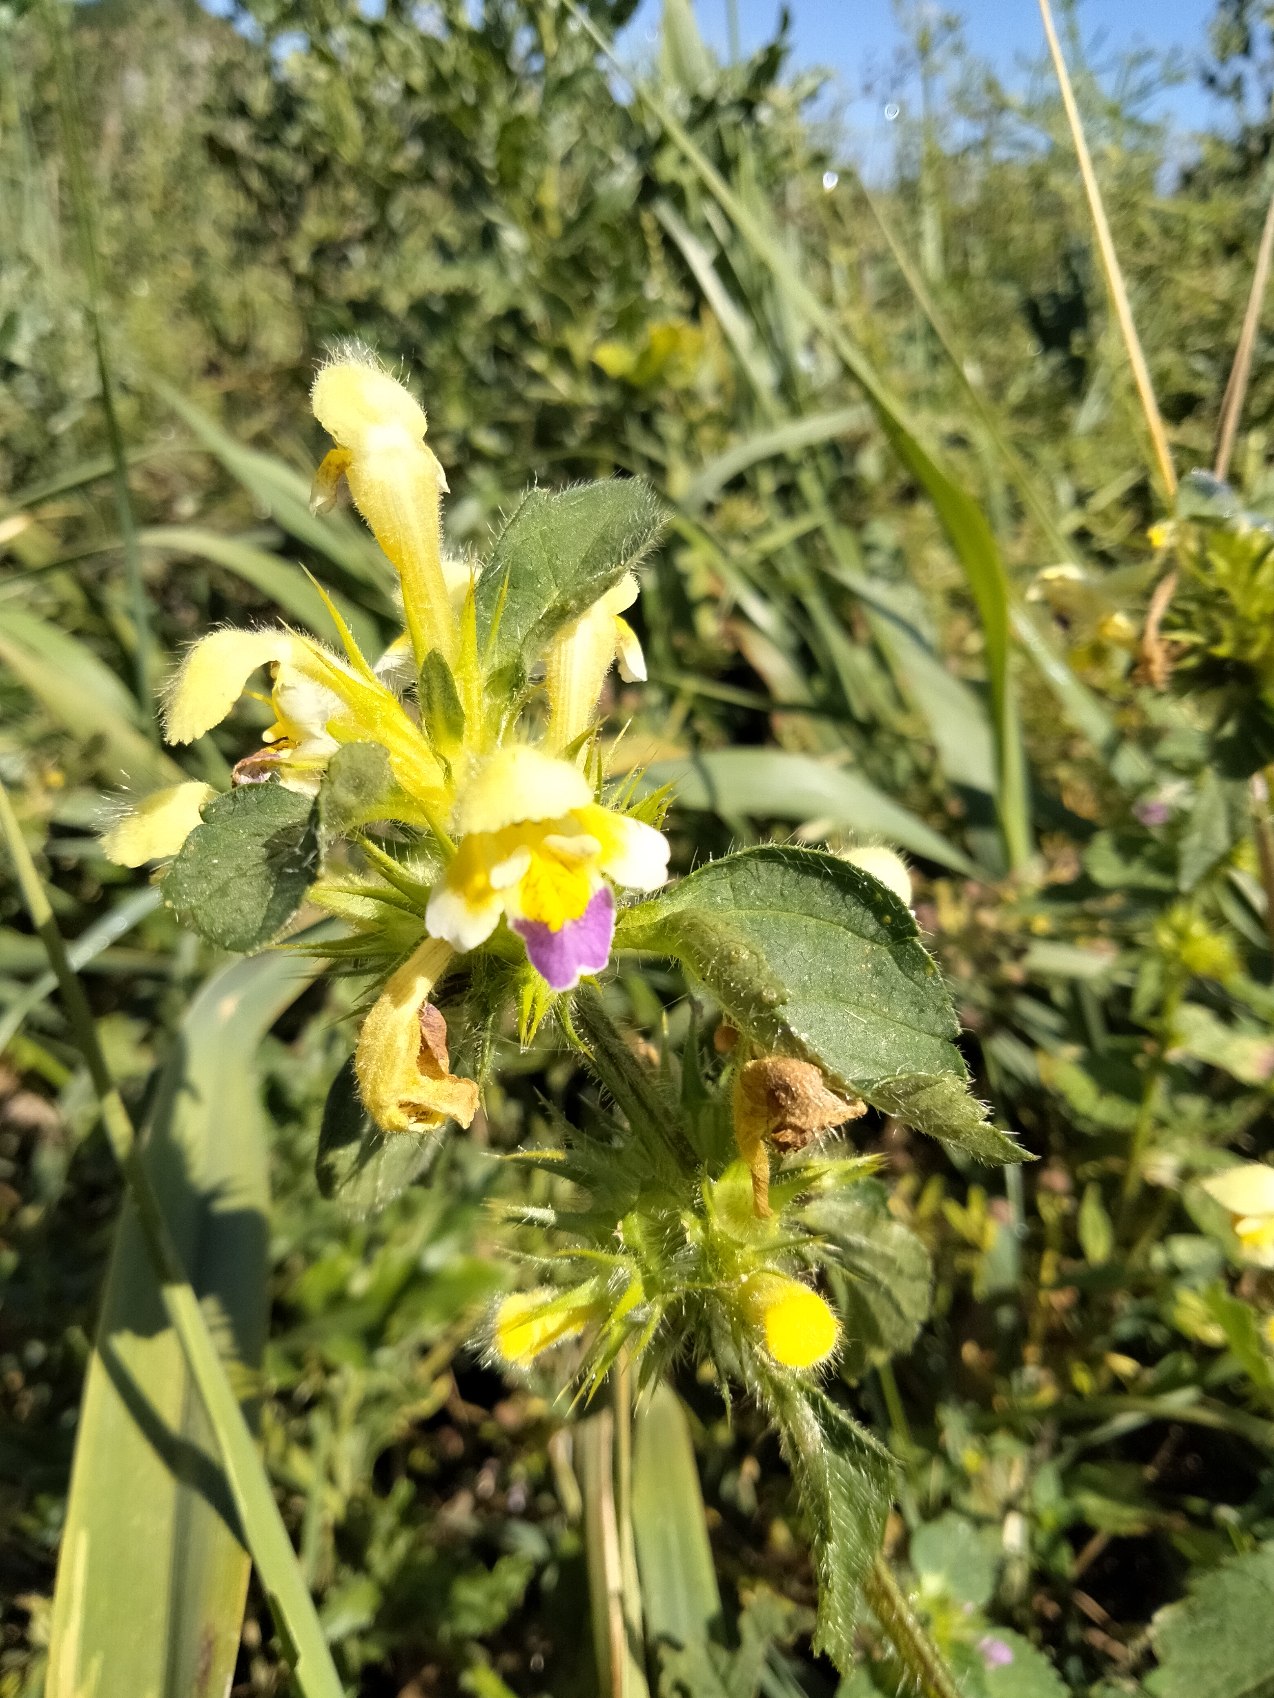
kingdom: Plantae
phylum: Tracheophyta
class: Magnoliopsida
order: Lamiales
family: Lamiaceae
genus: Galeopsis
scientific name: Galeopsis speciosa
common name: Hamp-hanekro
